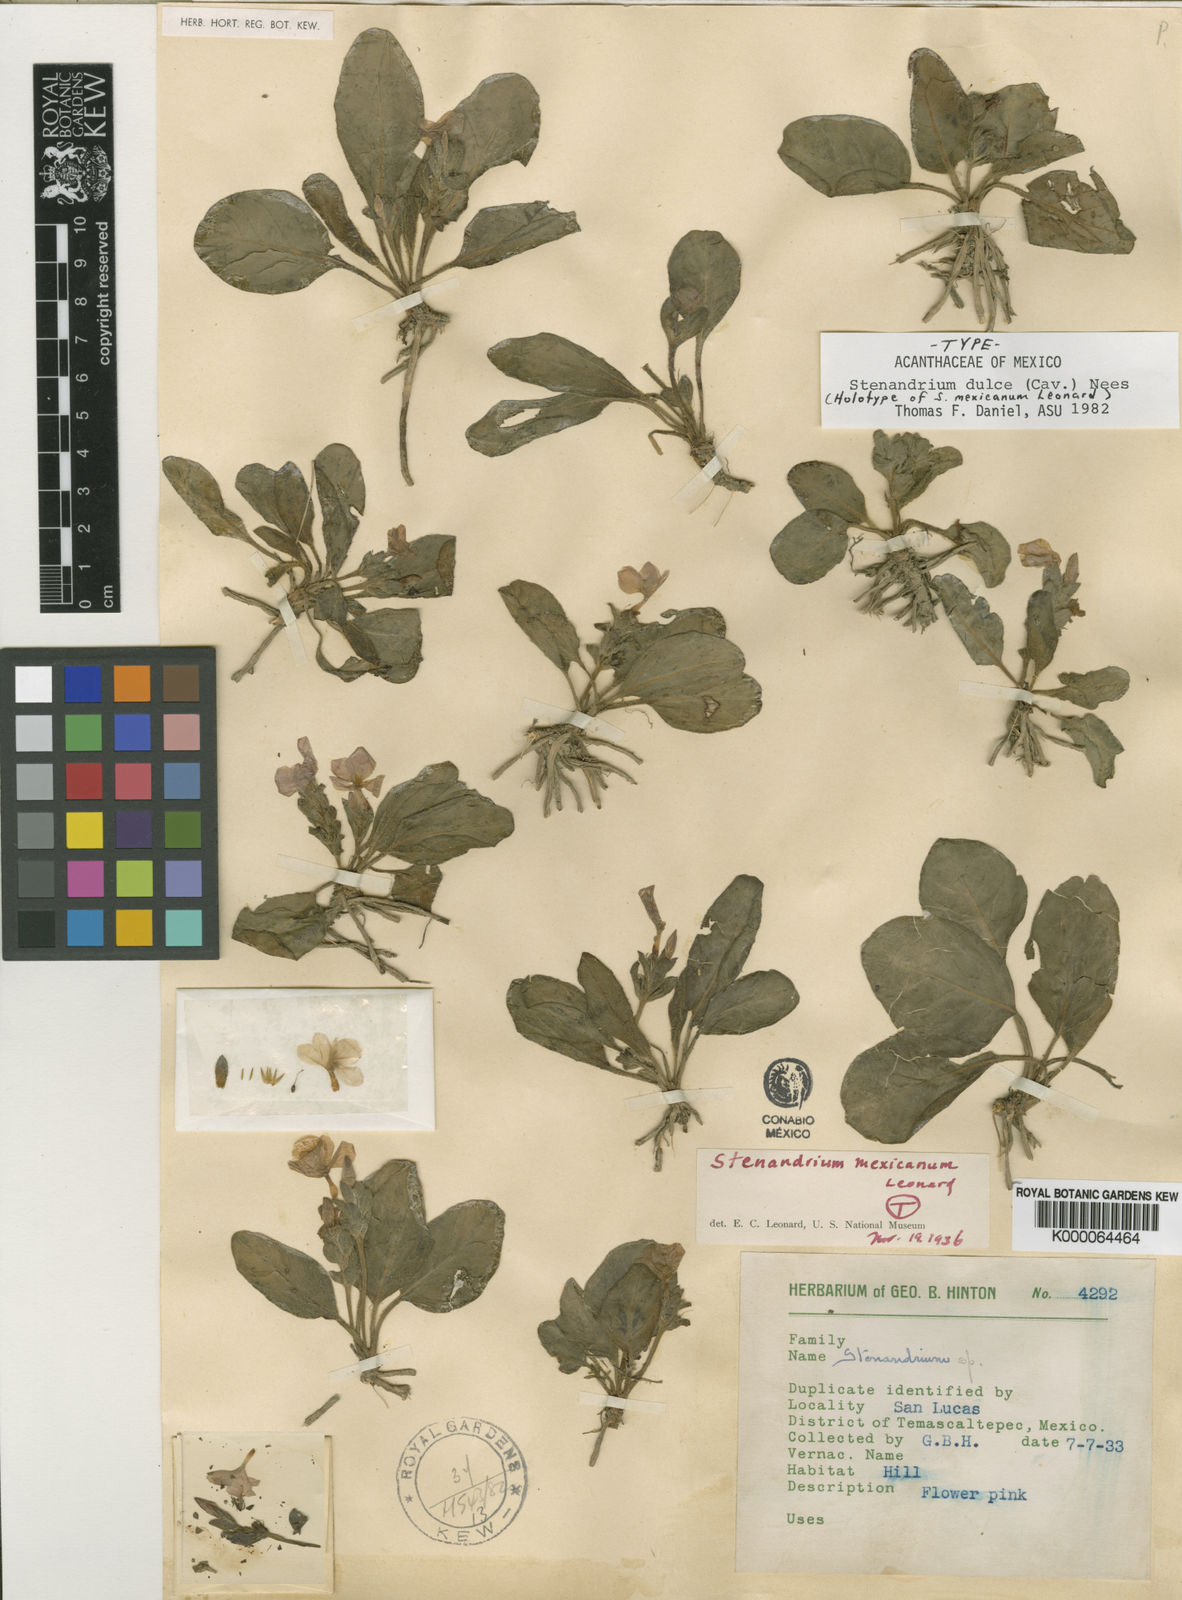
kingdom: Plantae
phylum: Tracheophyta
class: Magnoliopsida
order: Lamiales
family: Acanthaceae
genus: Stenandrium
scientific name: Stenandrium dulce
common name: Pinklet
